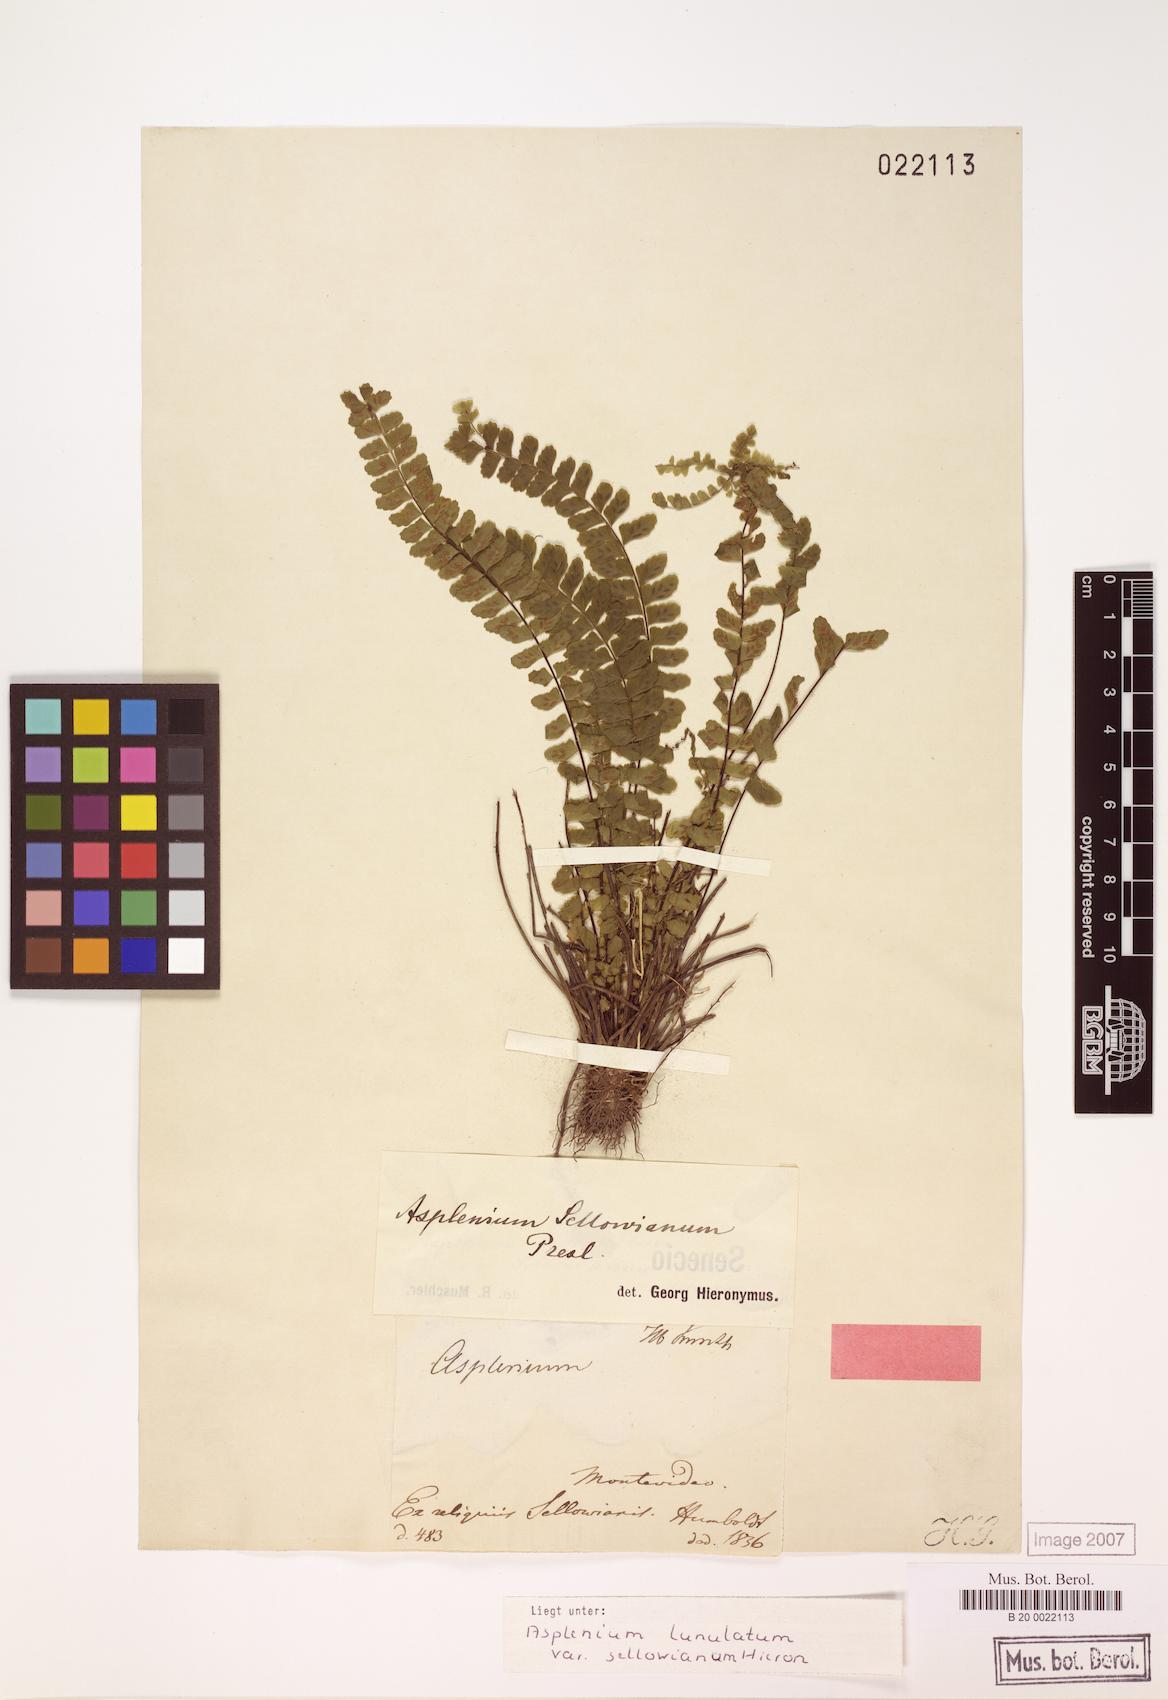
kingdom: Plantae
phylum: Tracheophyta
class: Polypodiopsida
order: Polypodiales
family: Aspleniaceae
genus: Asplenium
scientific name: Asplenium sellowianum
